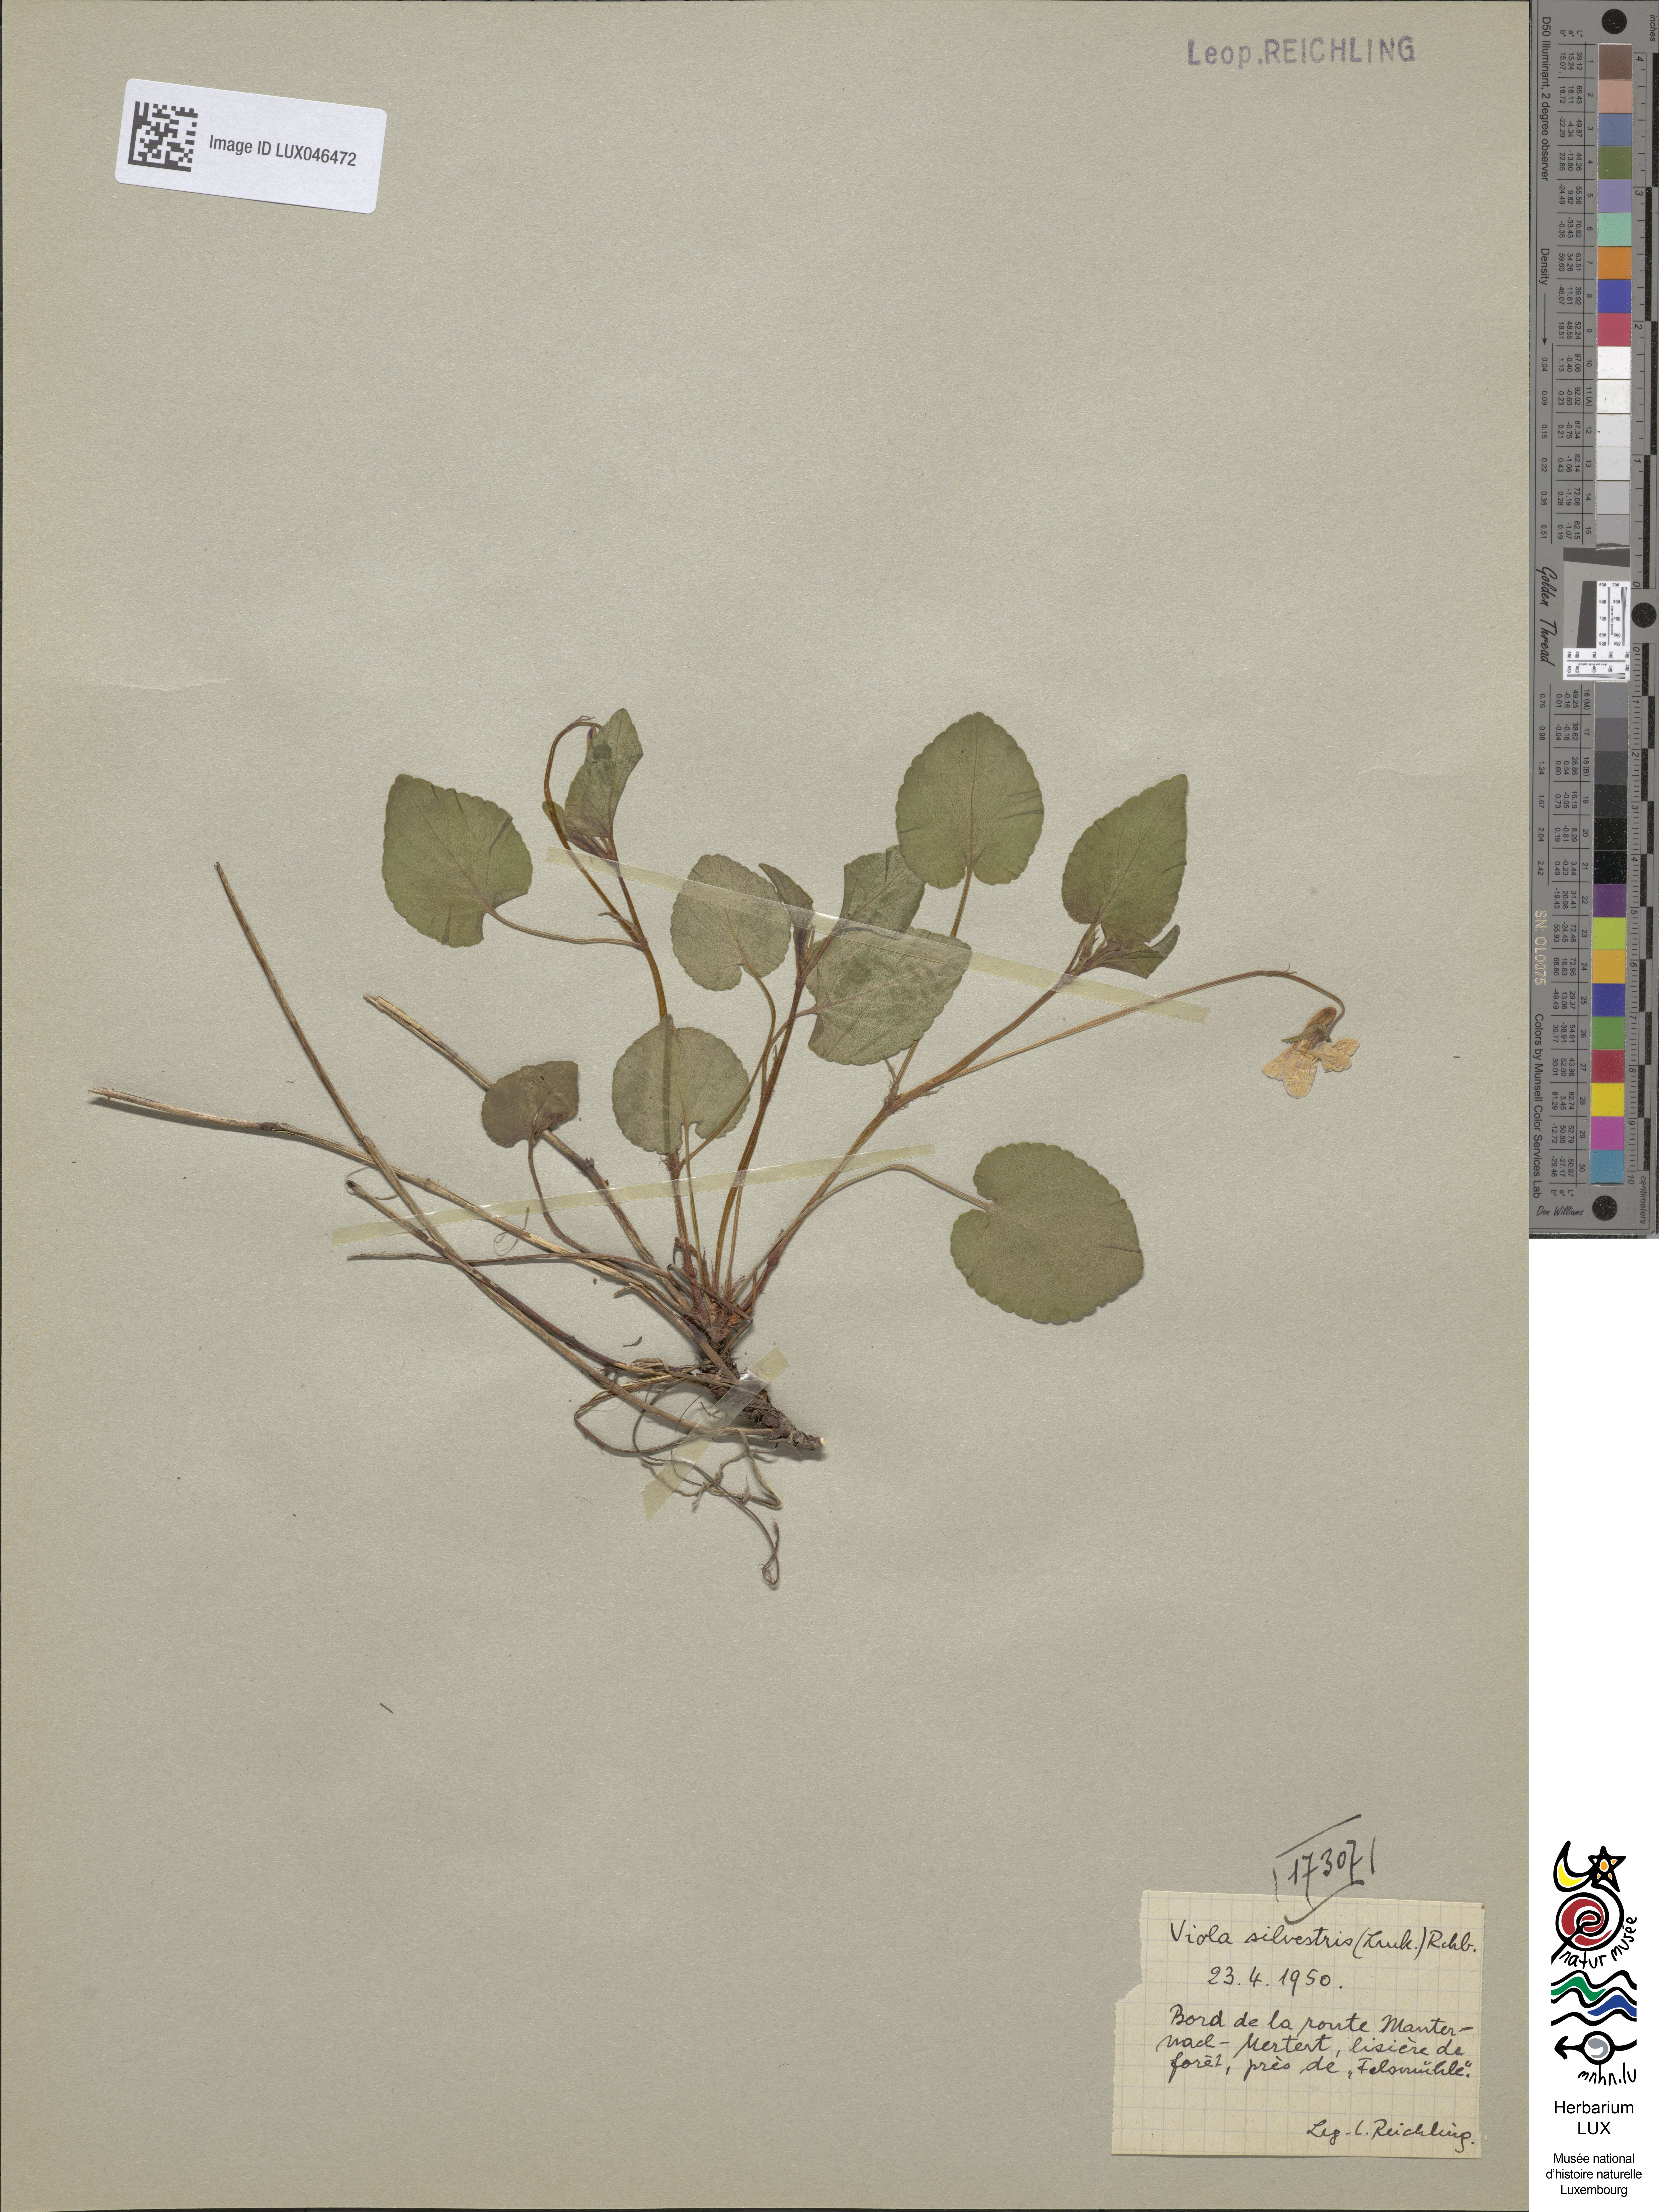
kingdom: Plantae
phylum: Tracheophyta
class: Magnoliopsida
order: Malpighiales
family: Violaceae
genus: Viola
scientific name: Viola reichenbachiana
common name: Early dog-violet
